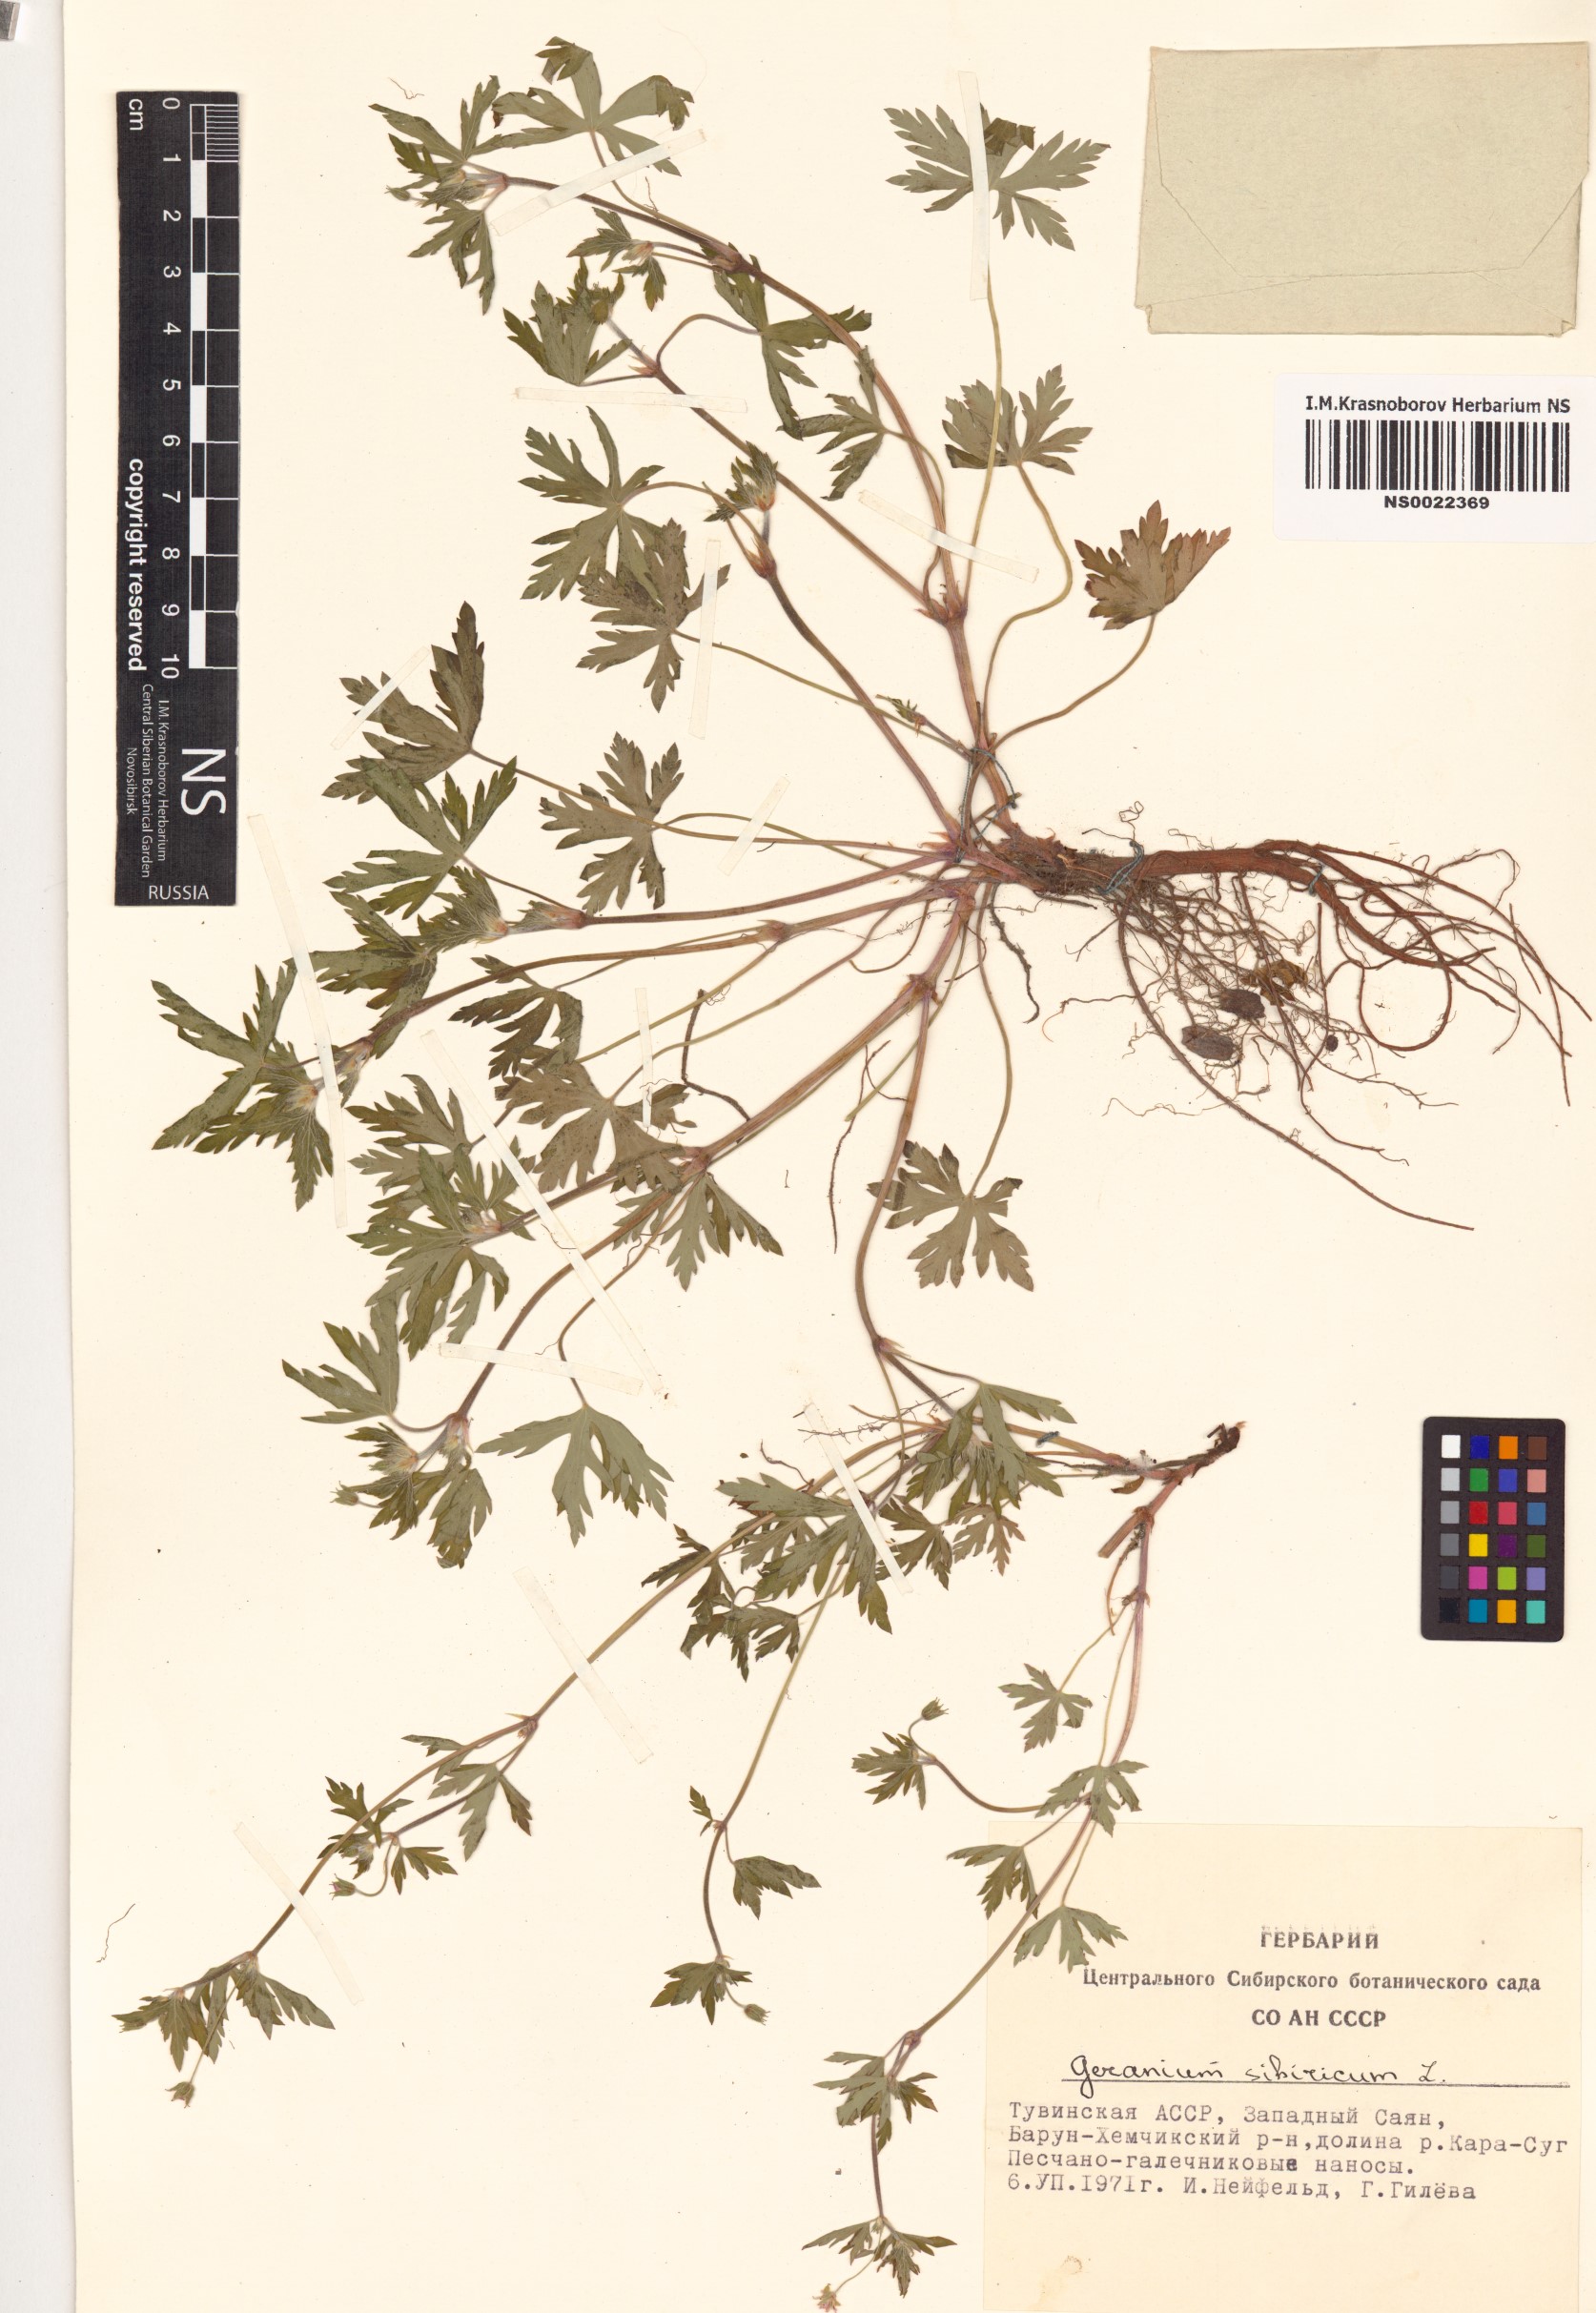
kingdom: Plantae
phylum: Tracheophyta
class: Magnoliopsida
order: Geraniales
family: Geraniaceae
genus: Geranium
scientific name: Geranium sibiricum
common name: Siberian crane's-bill
